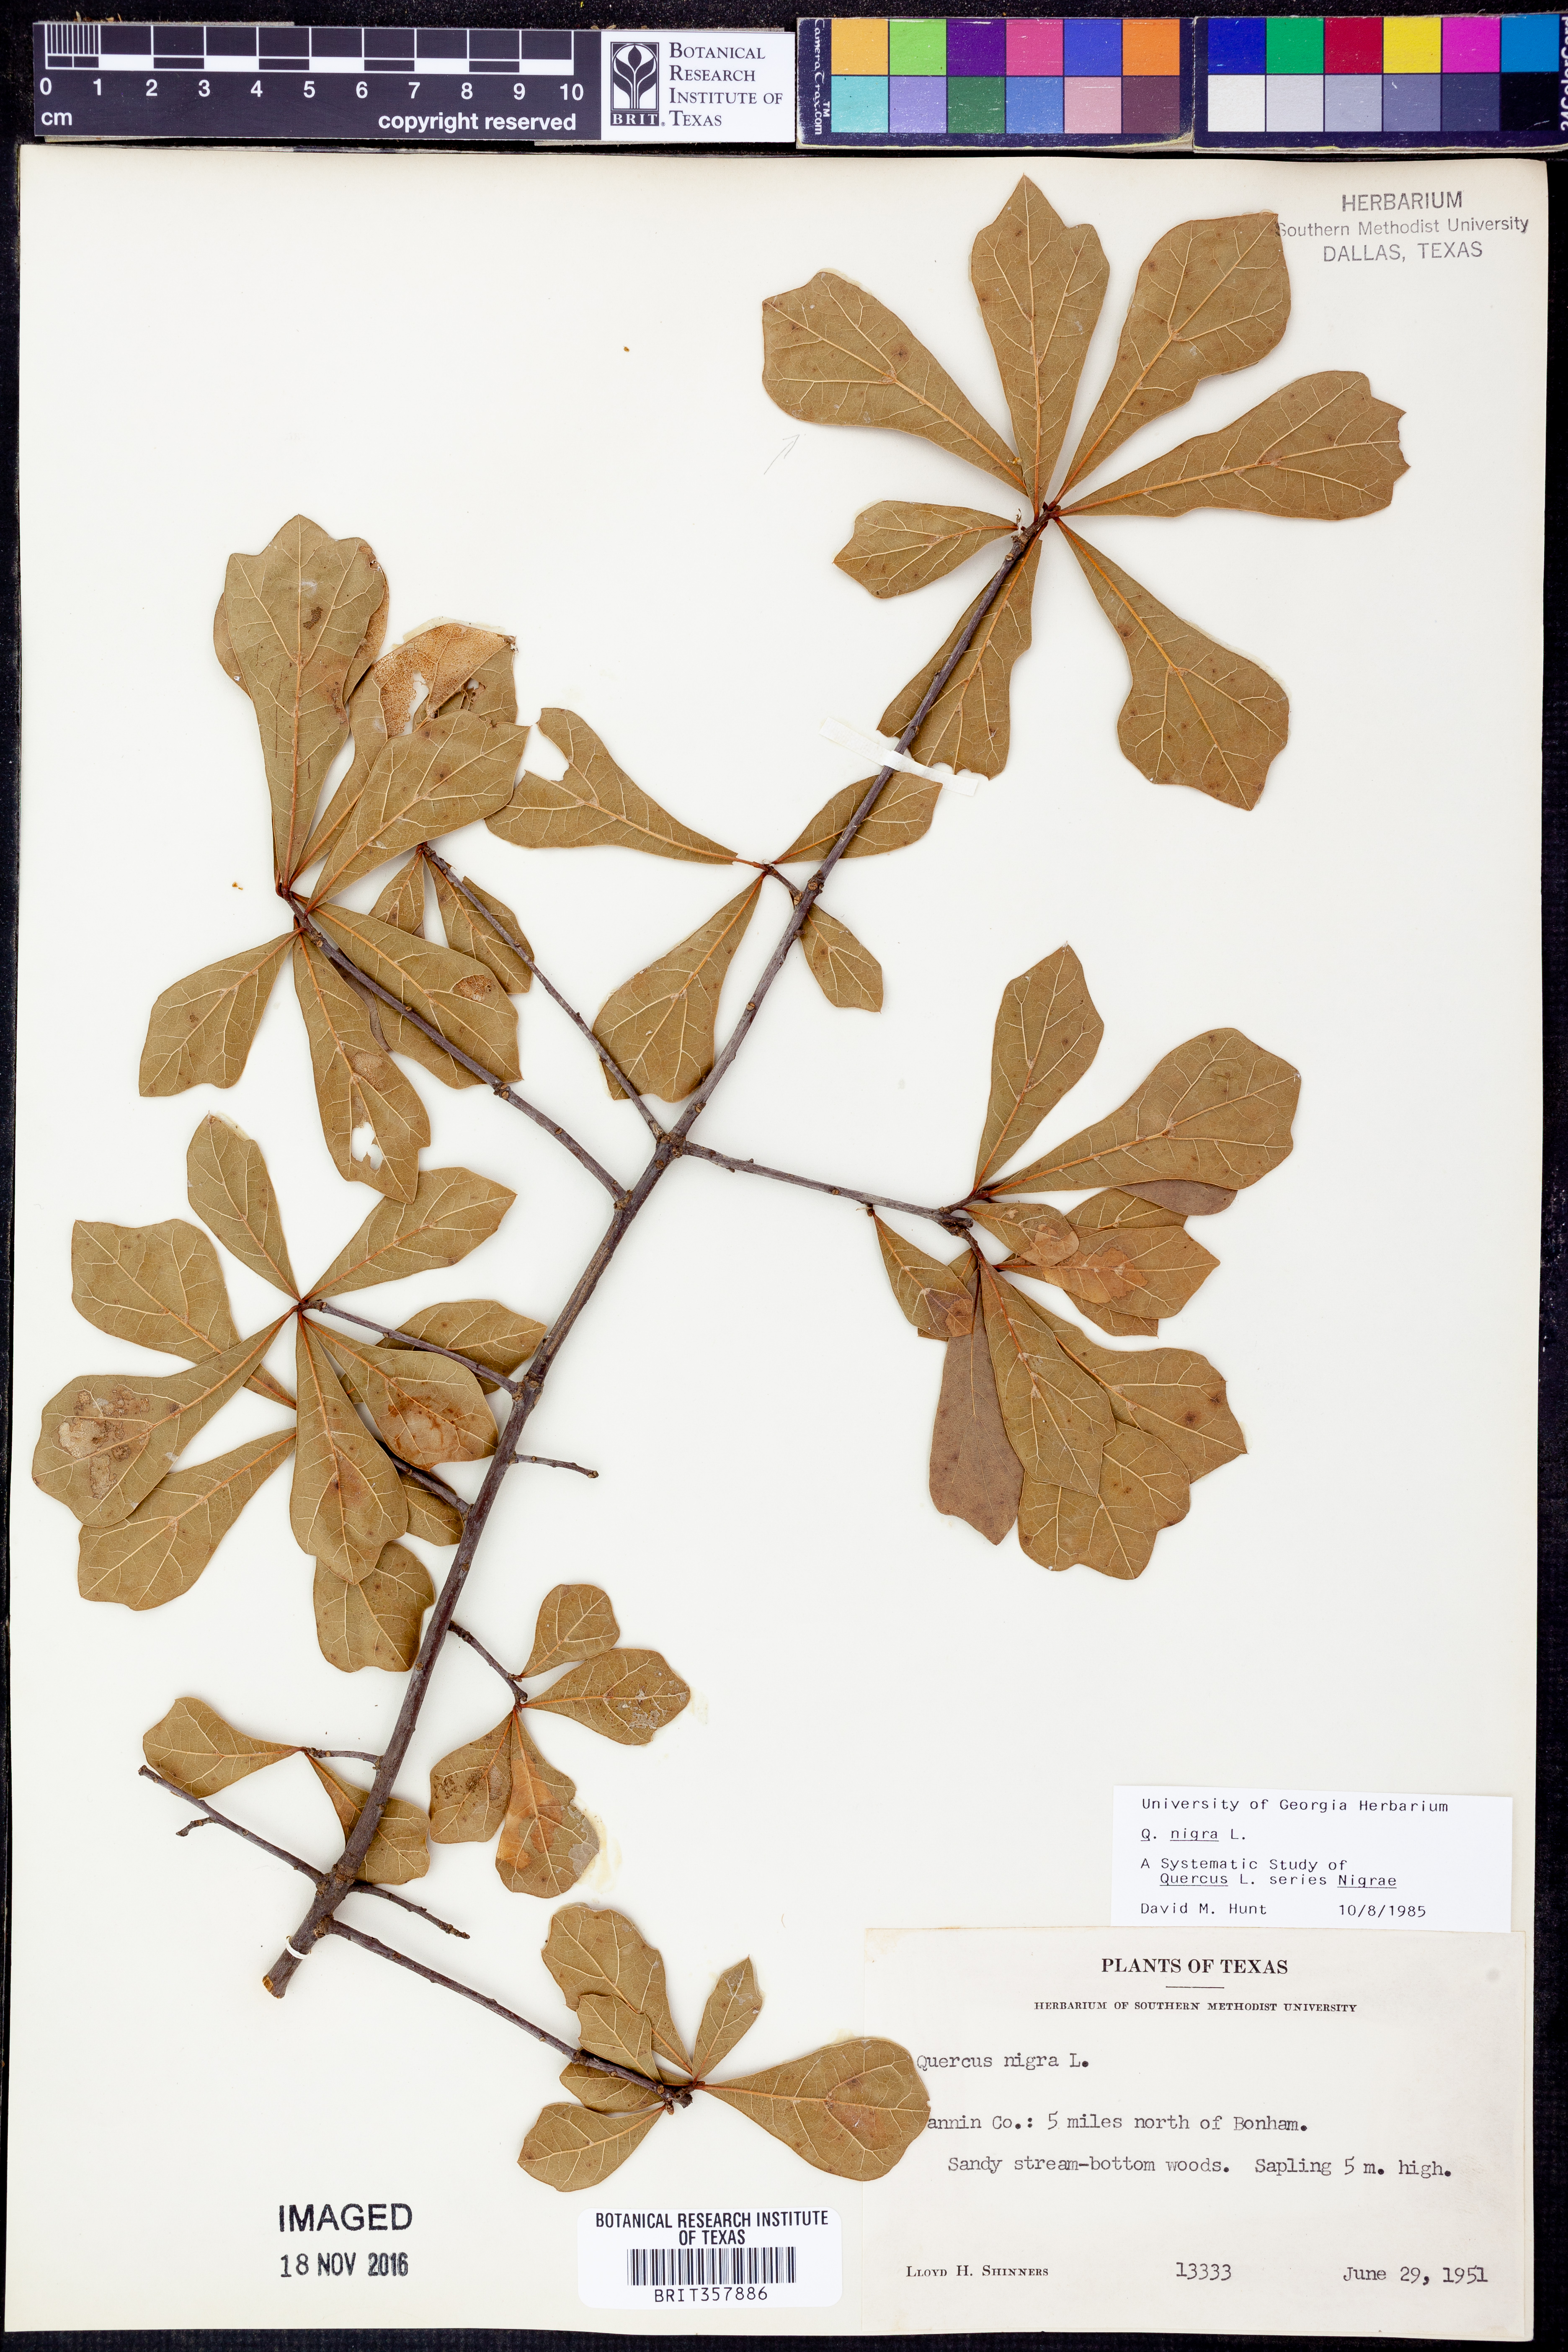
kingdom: Plantae
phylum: Tracheophyta
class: Magnoliopsida
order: Fagales
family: Fagaceae
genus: Quercus
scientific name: Quercus nigra
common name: Water oak
